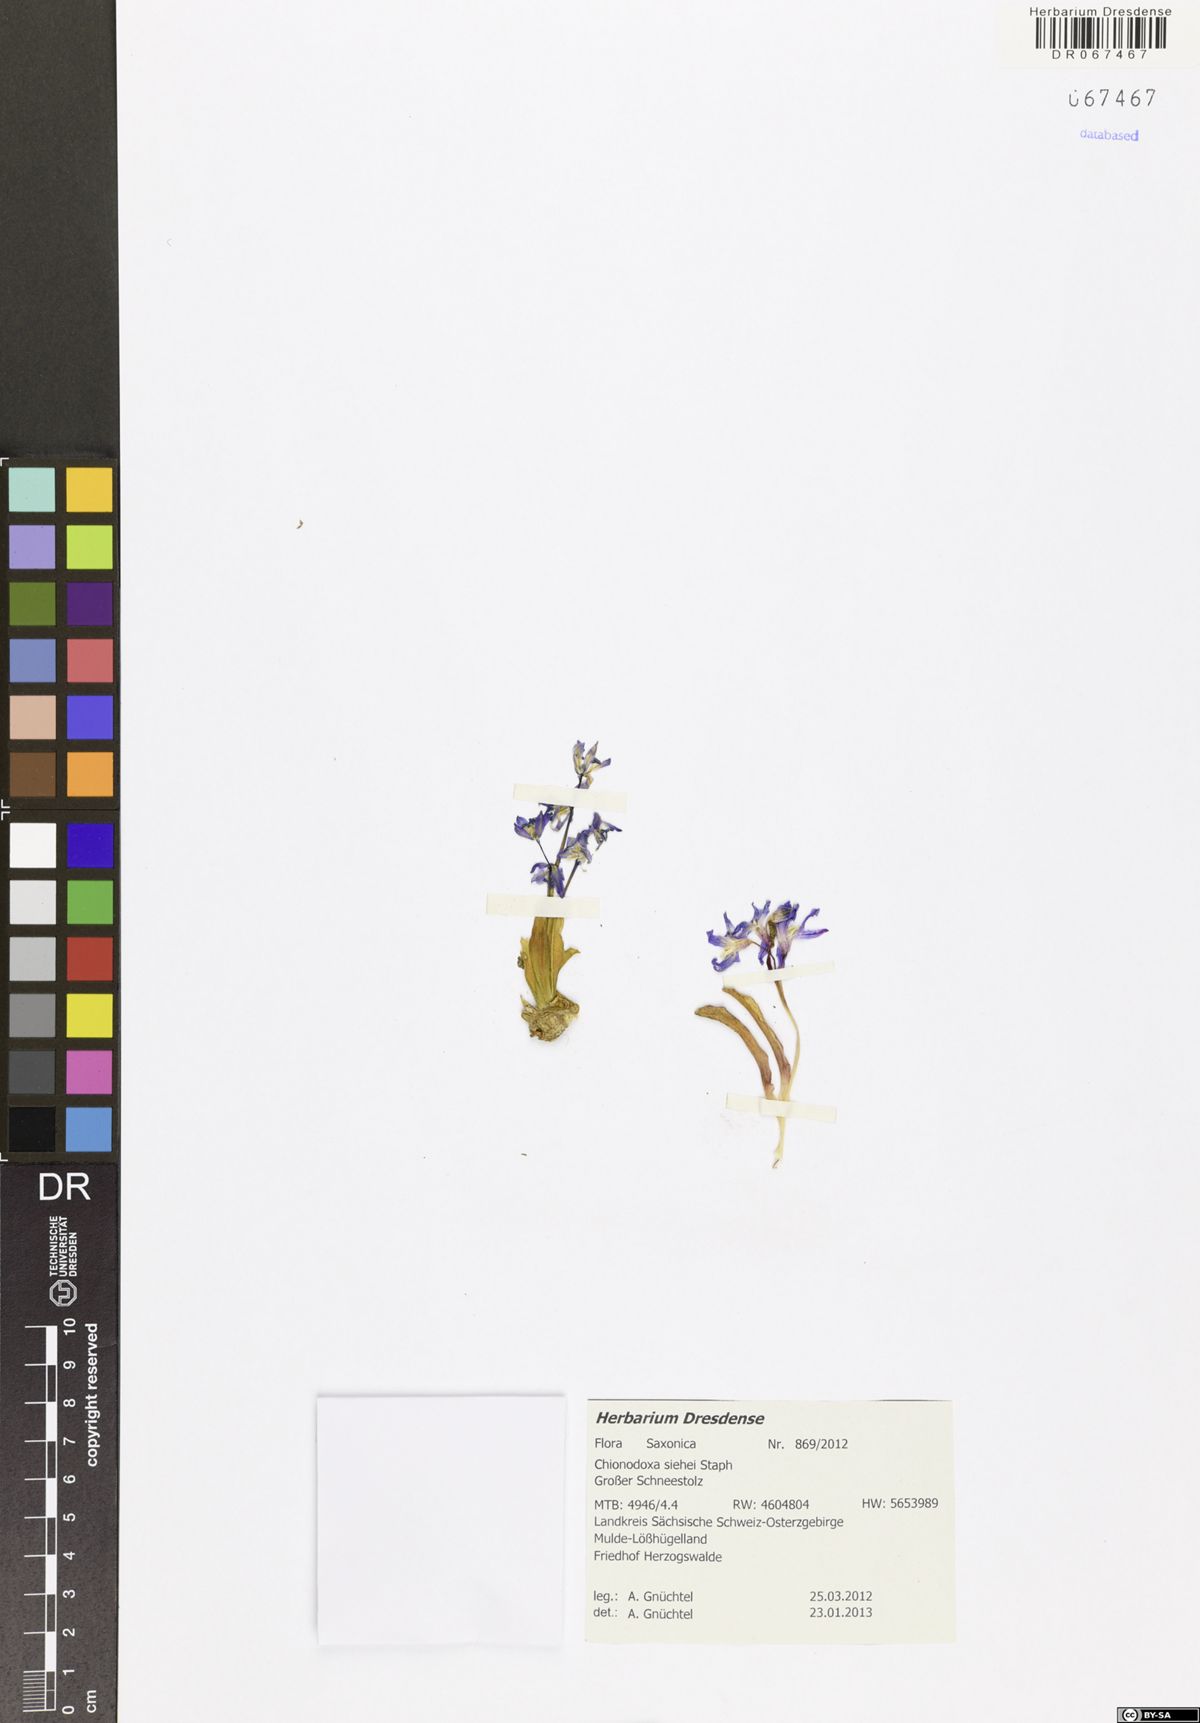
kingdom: Plantae
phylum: Tracheophyta
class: Liliopsida
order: Asparagales
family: Asparagaceae
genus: Scilla
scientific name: Scilla forbesii
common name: Glory-of-the-snow
